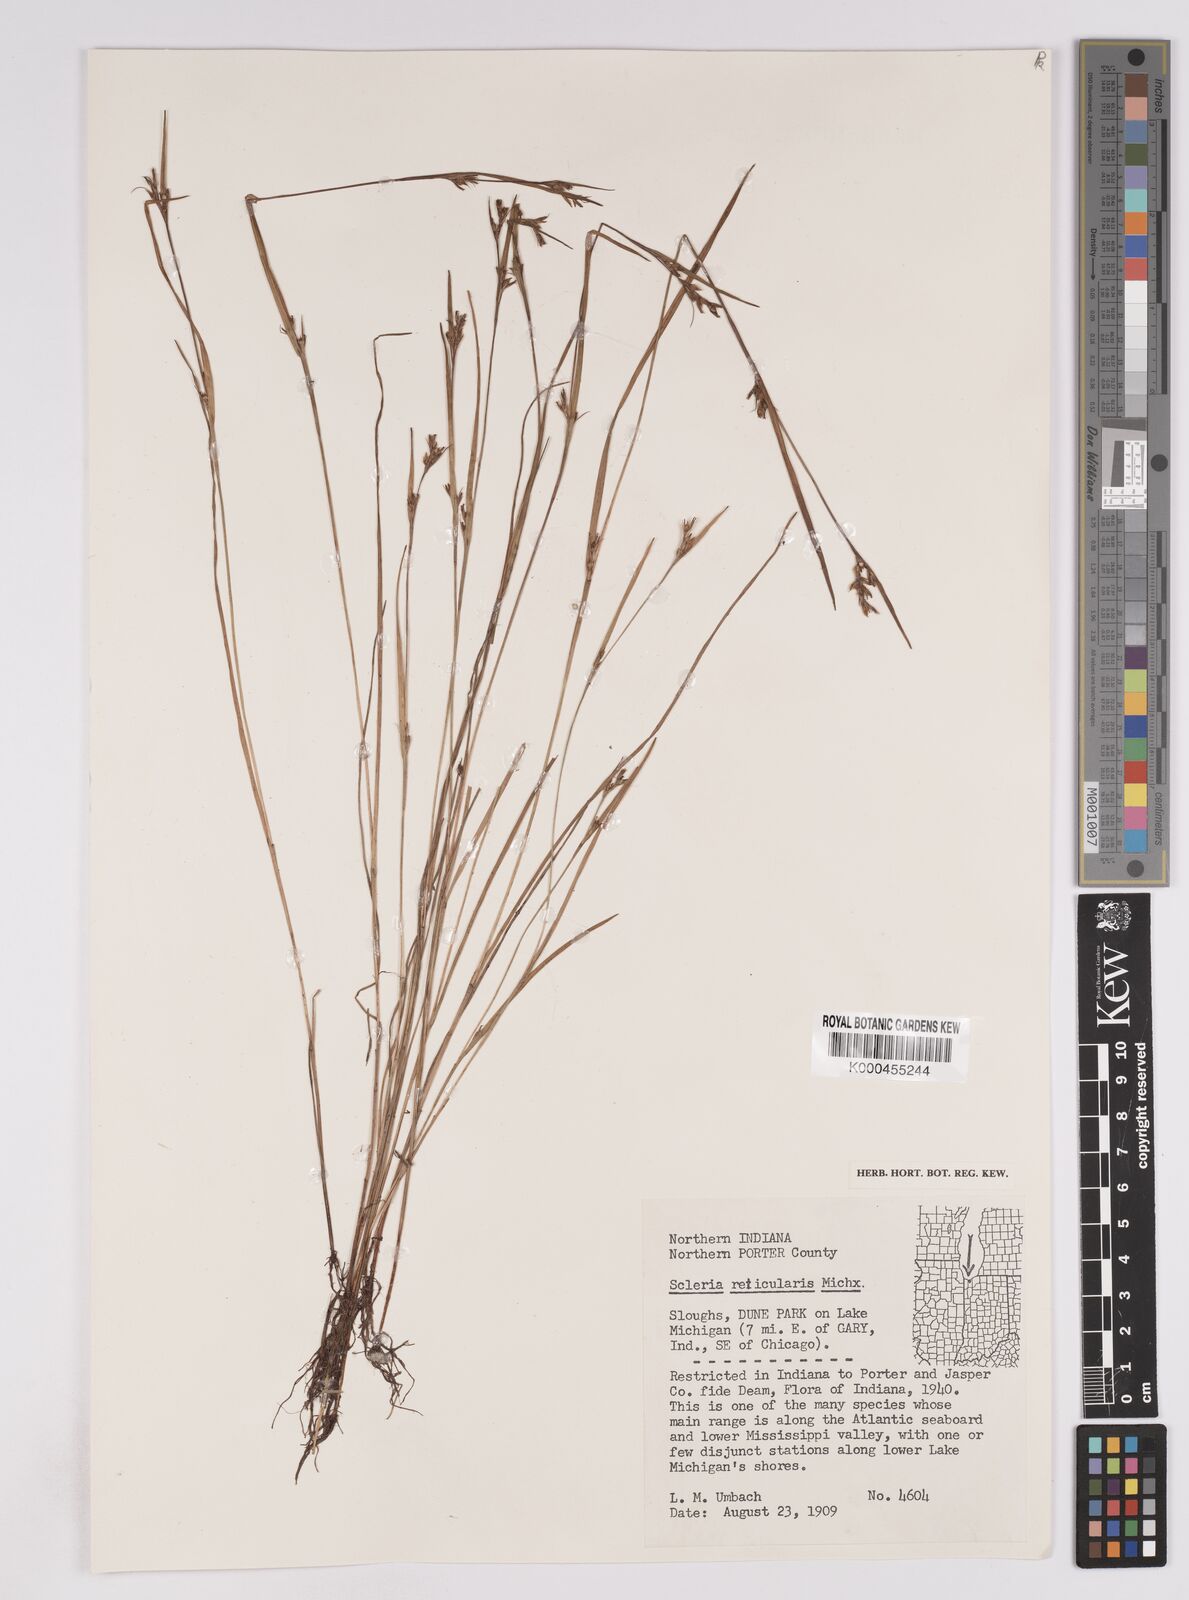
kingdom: Plantae
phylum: Tracheophyta
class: Liliopsida
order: Poales
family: Cyperaceae
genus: Scleria
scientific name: Scleria
